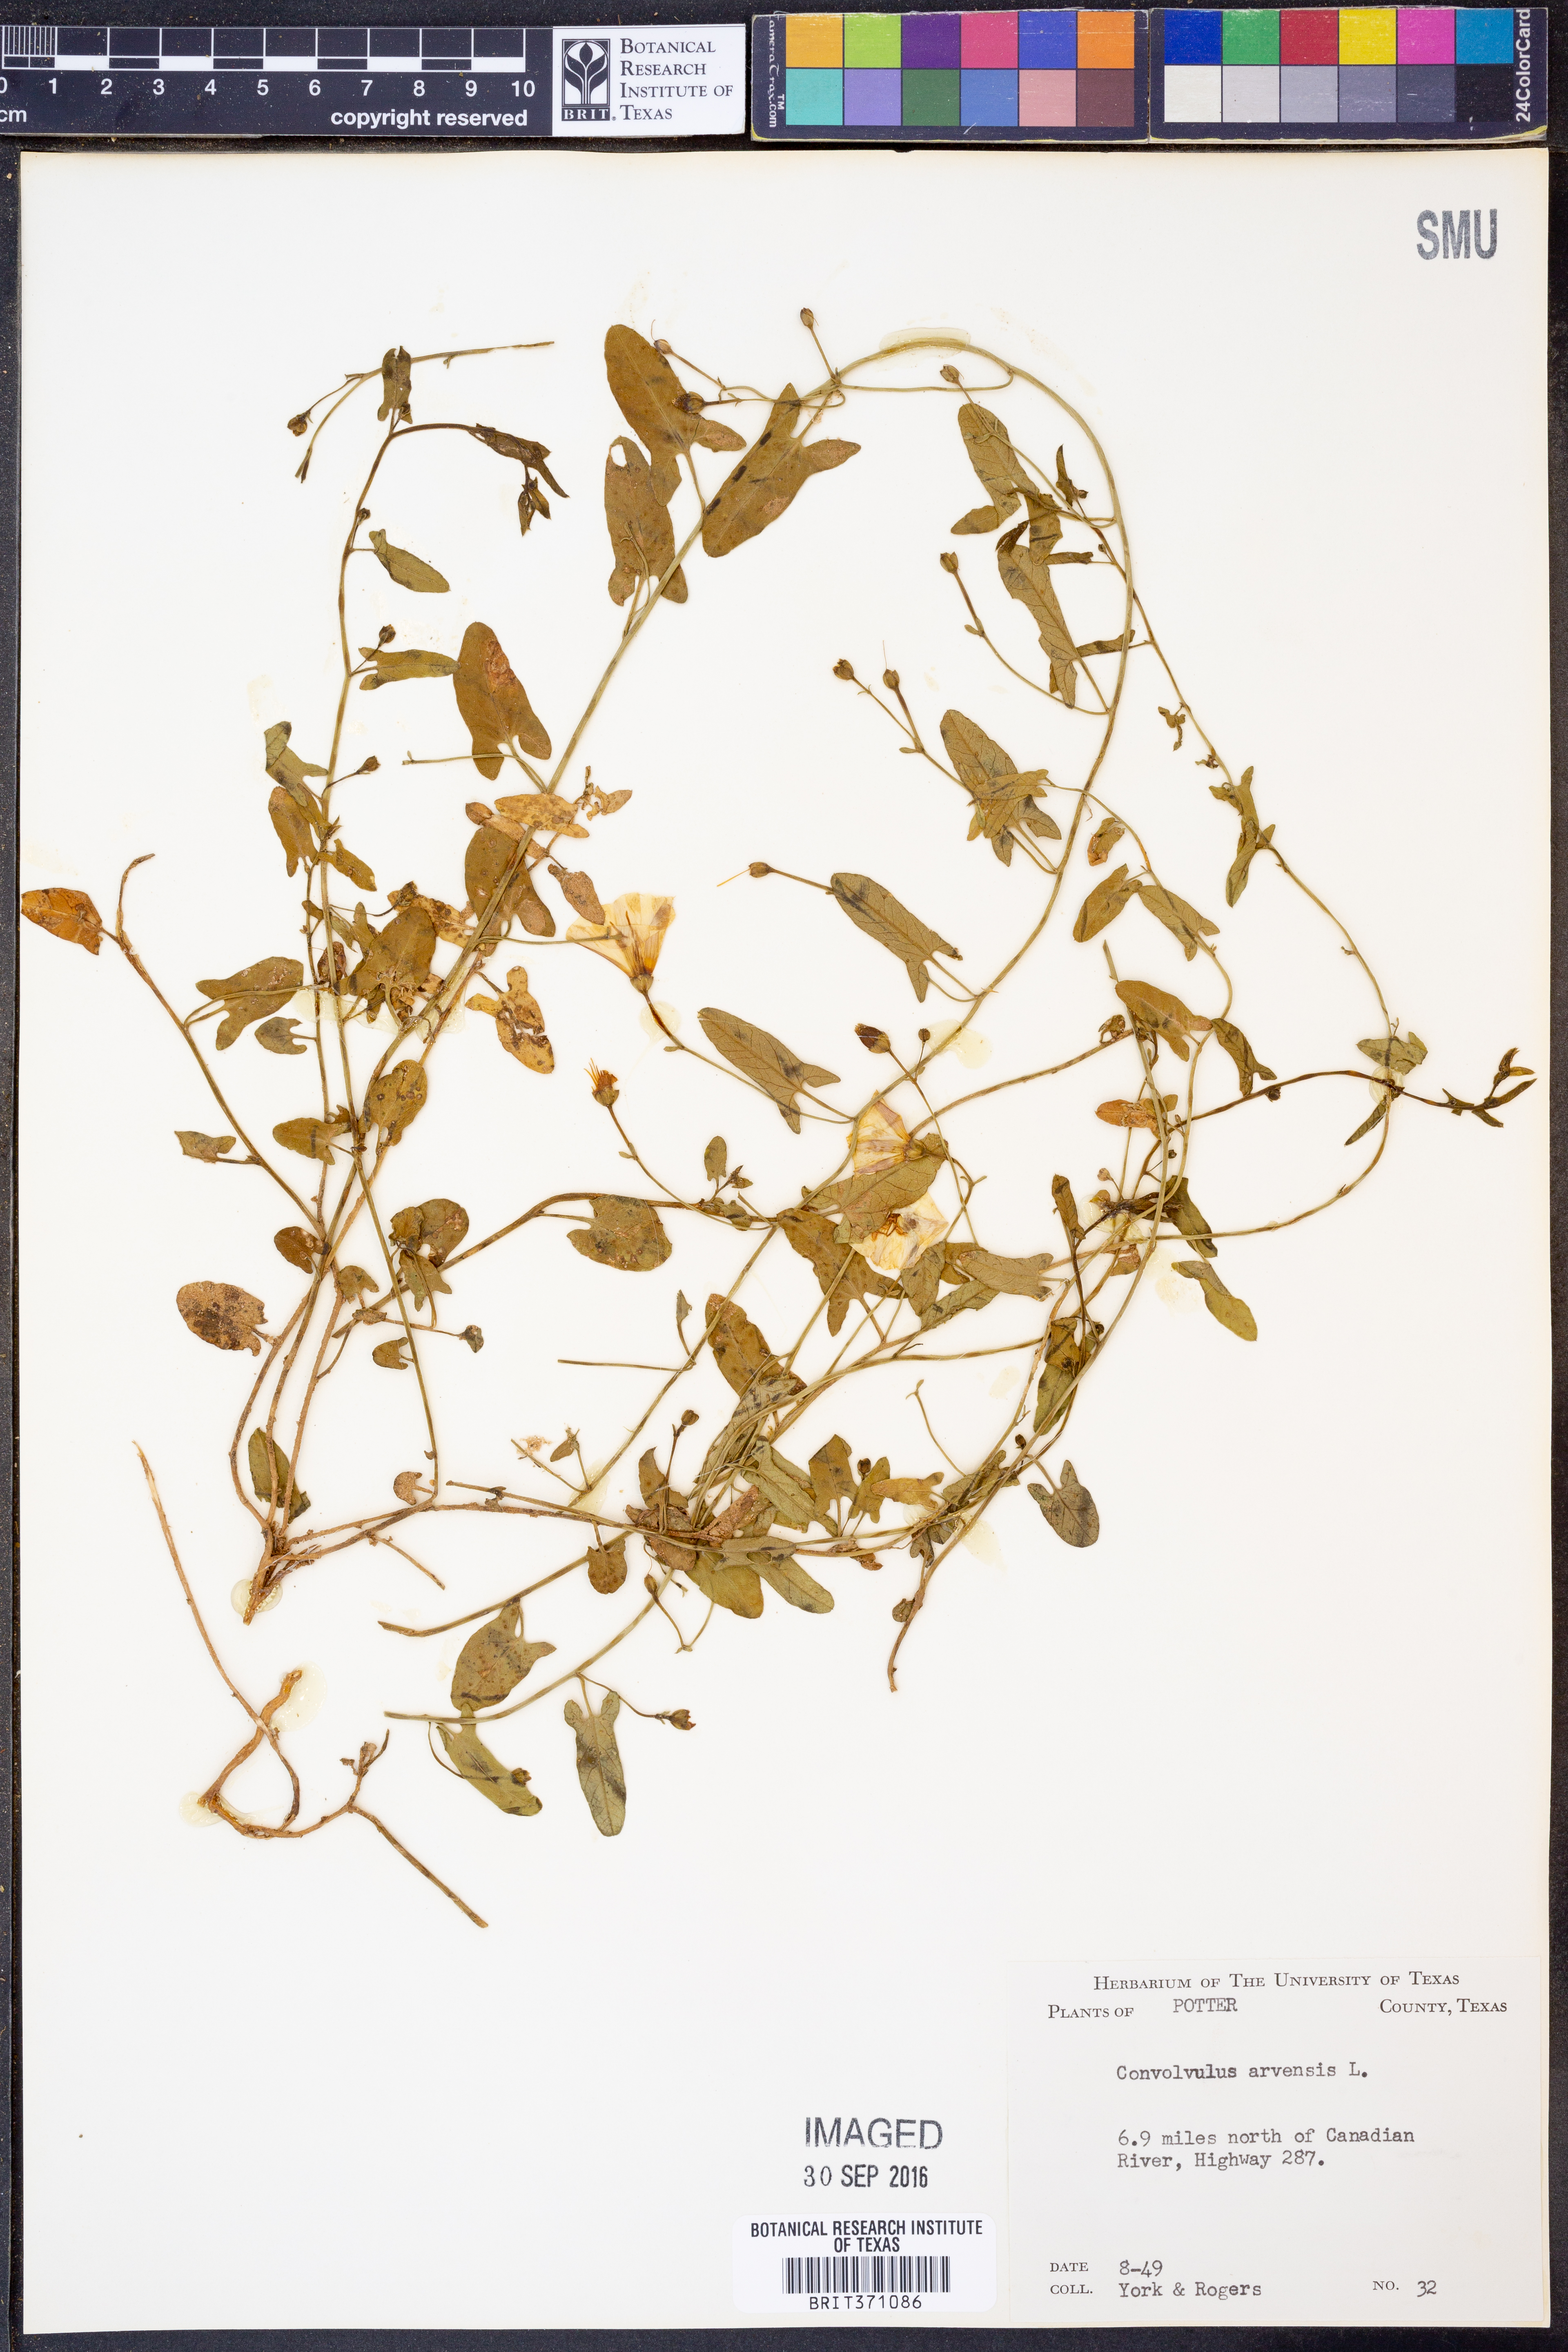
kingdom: Plantae
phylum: Tracheophyta
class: Magnoliopsida
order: Solanales
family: Convolvulaceae
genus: Convolvulus
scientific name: Convolvulus arvensis
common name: Field bindweed
